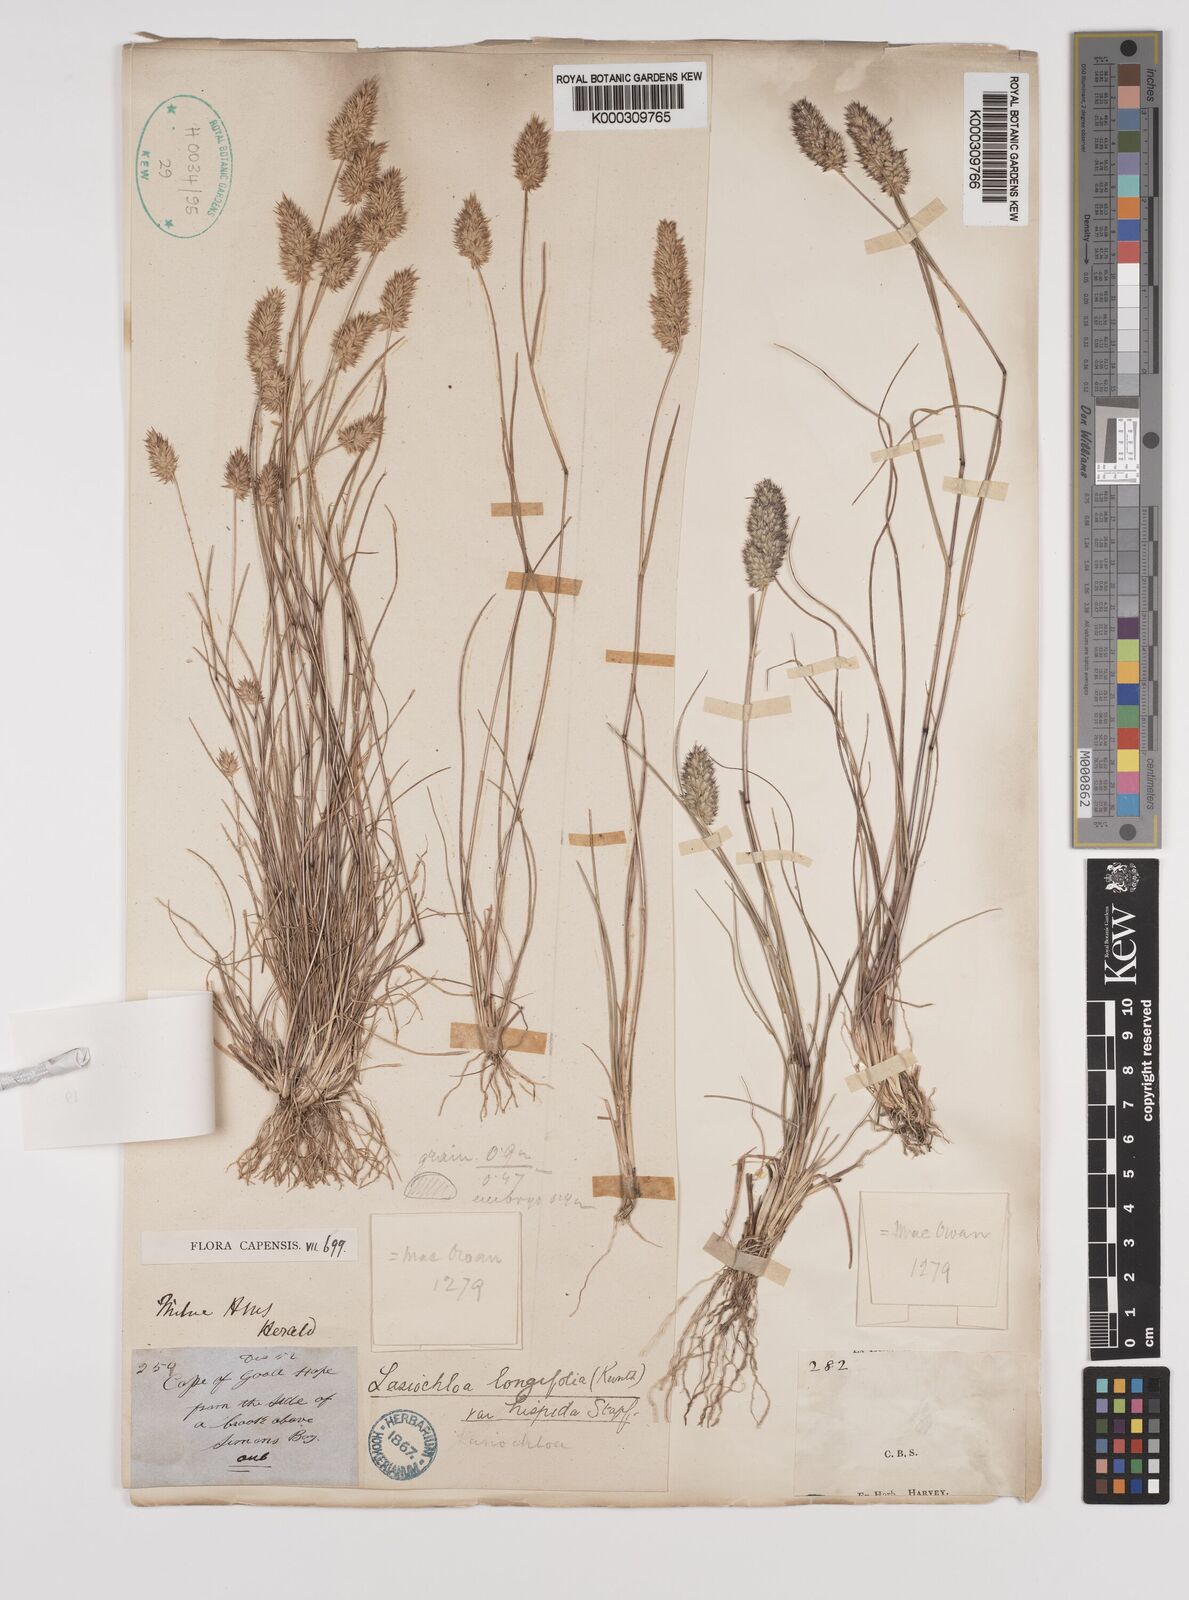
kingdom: Plantae
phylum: Tracheophyta
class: Liliopsida
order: Poales
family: Poaceae
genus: Tribolium
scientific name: Tribolium hispidum
